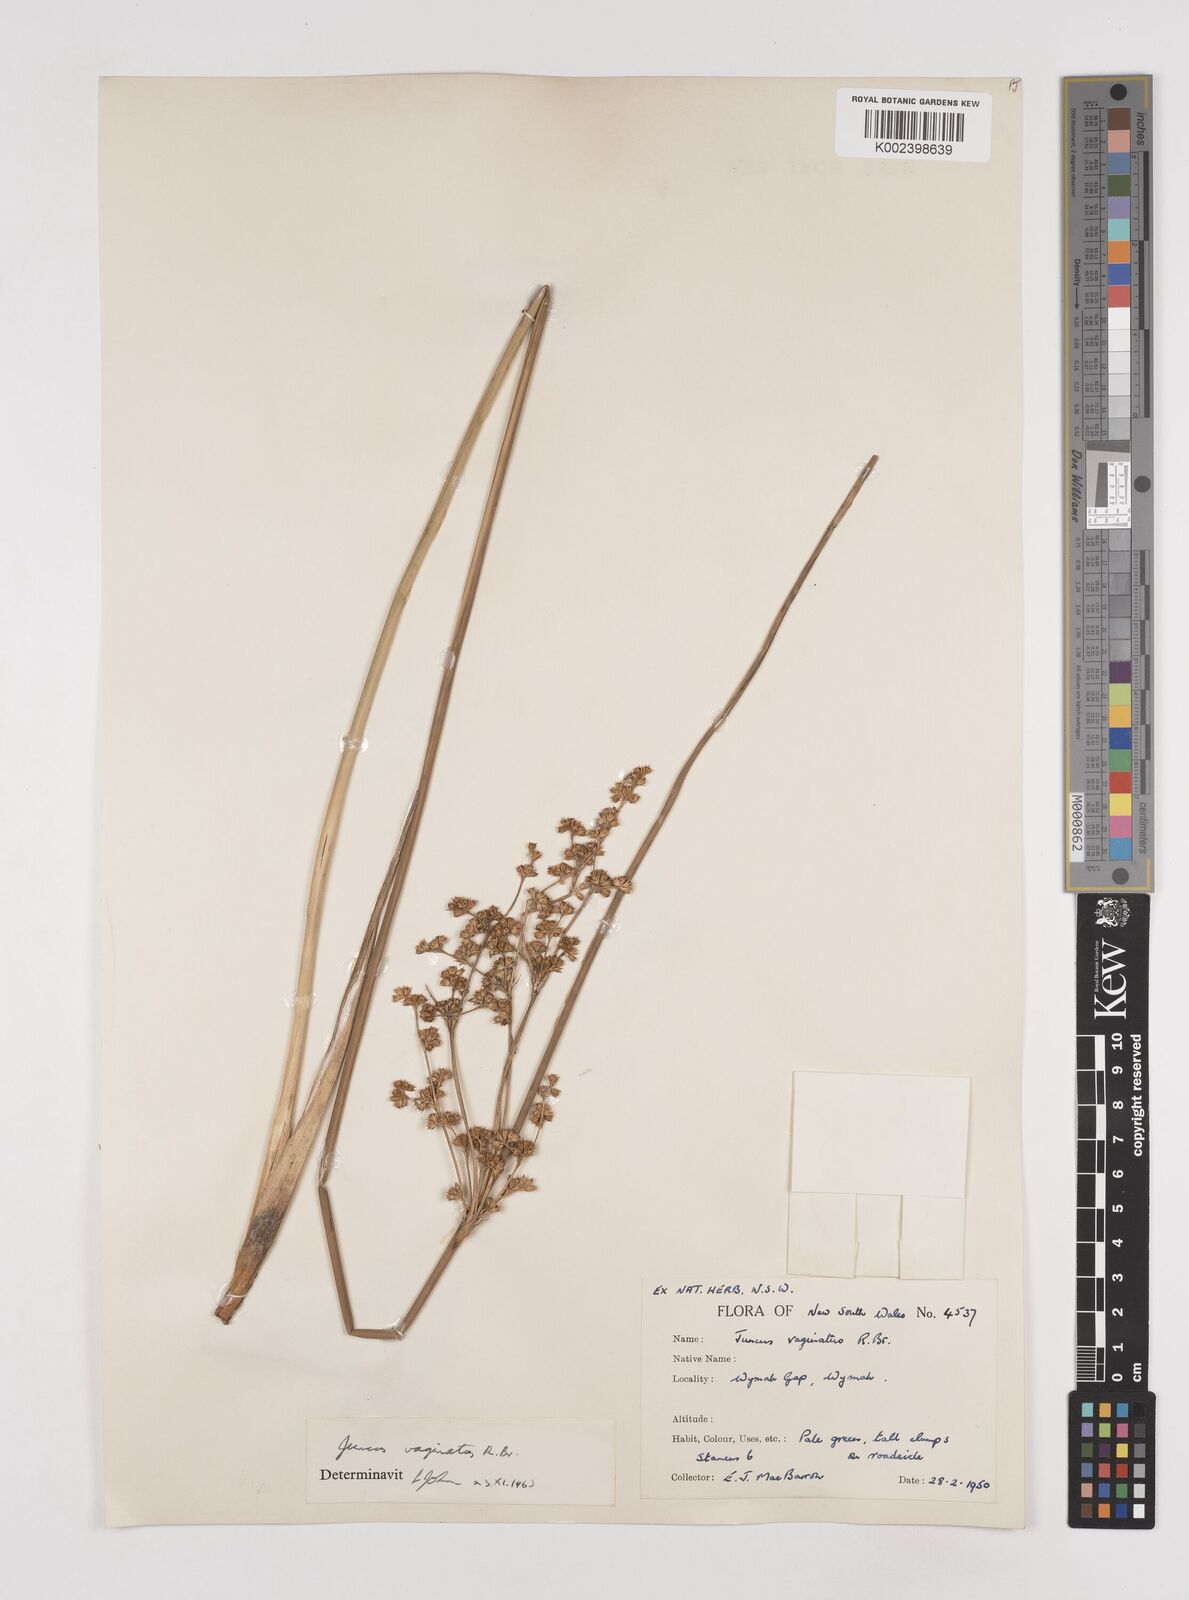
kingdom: Plantae
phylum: Tracheophyta
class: Liliopsida
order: Poales
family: Juncaceae
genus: Juncus
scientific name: Juncus vaginatus
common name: Clustered rush
